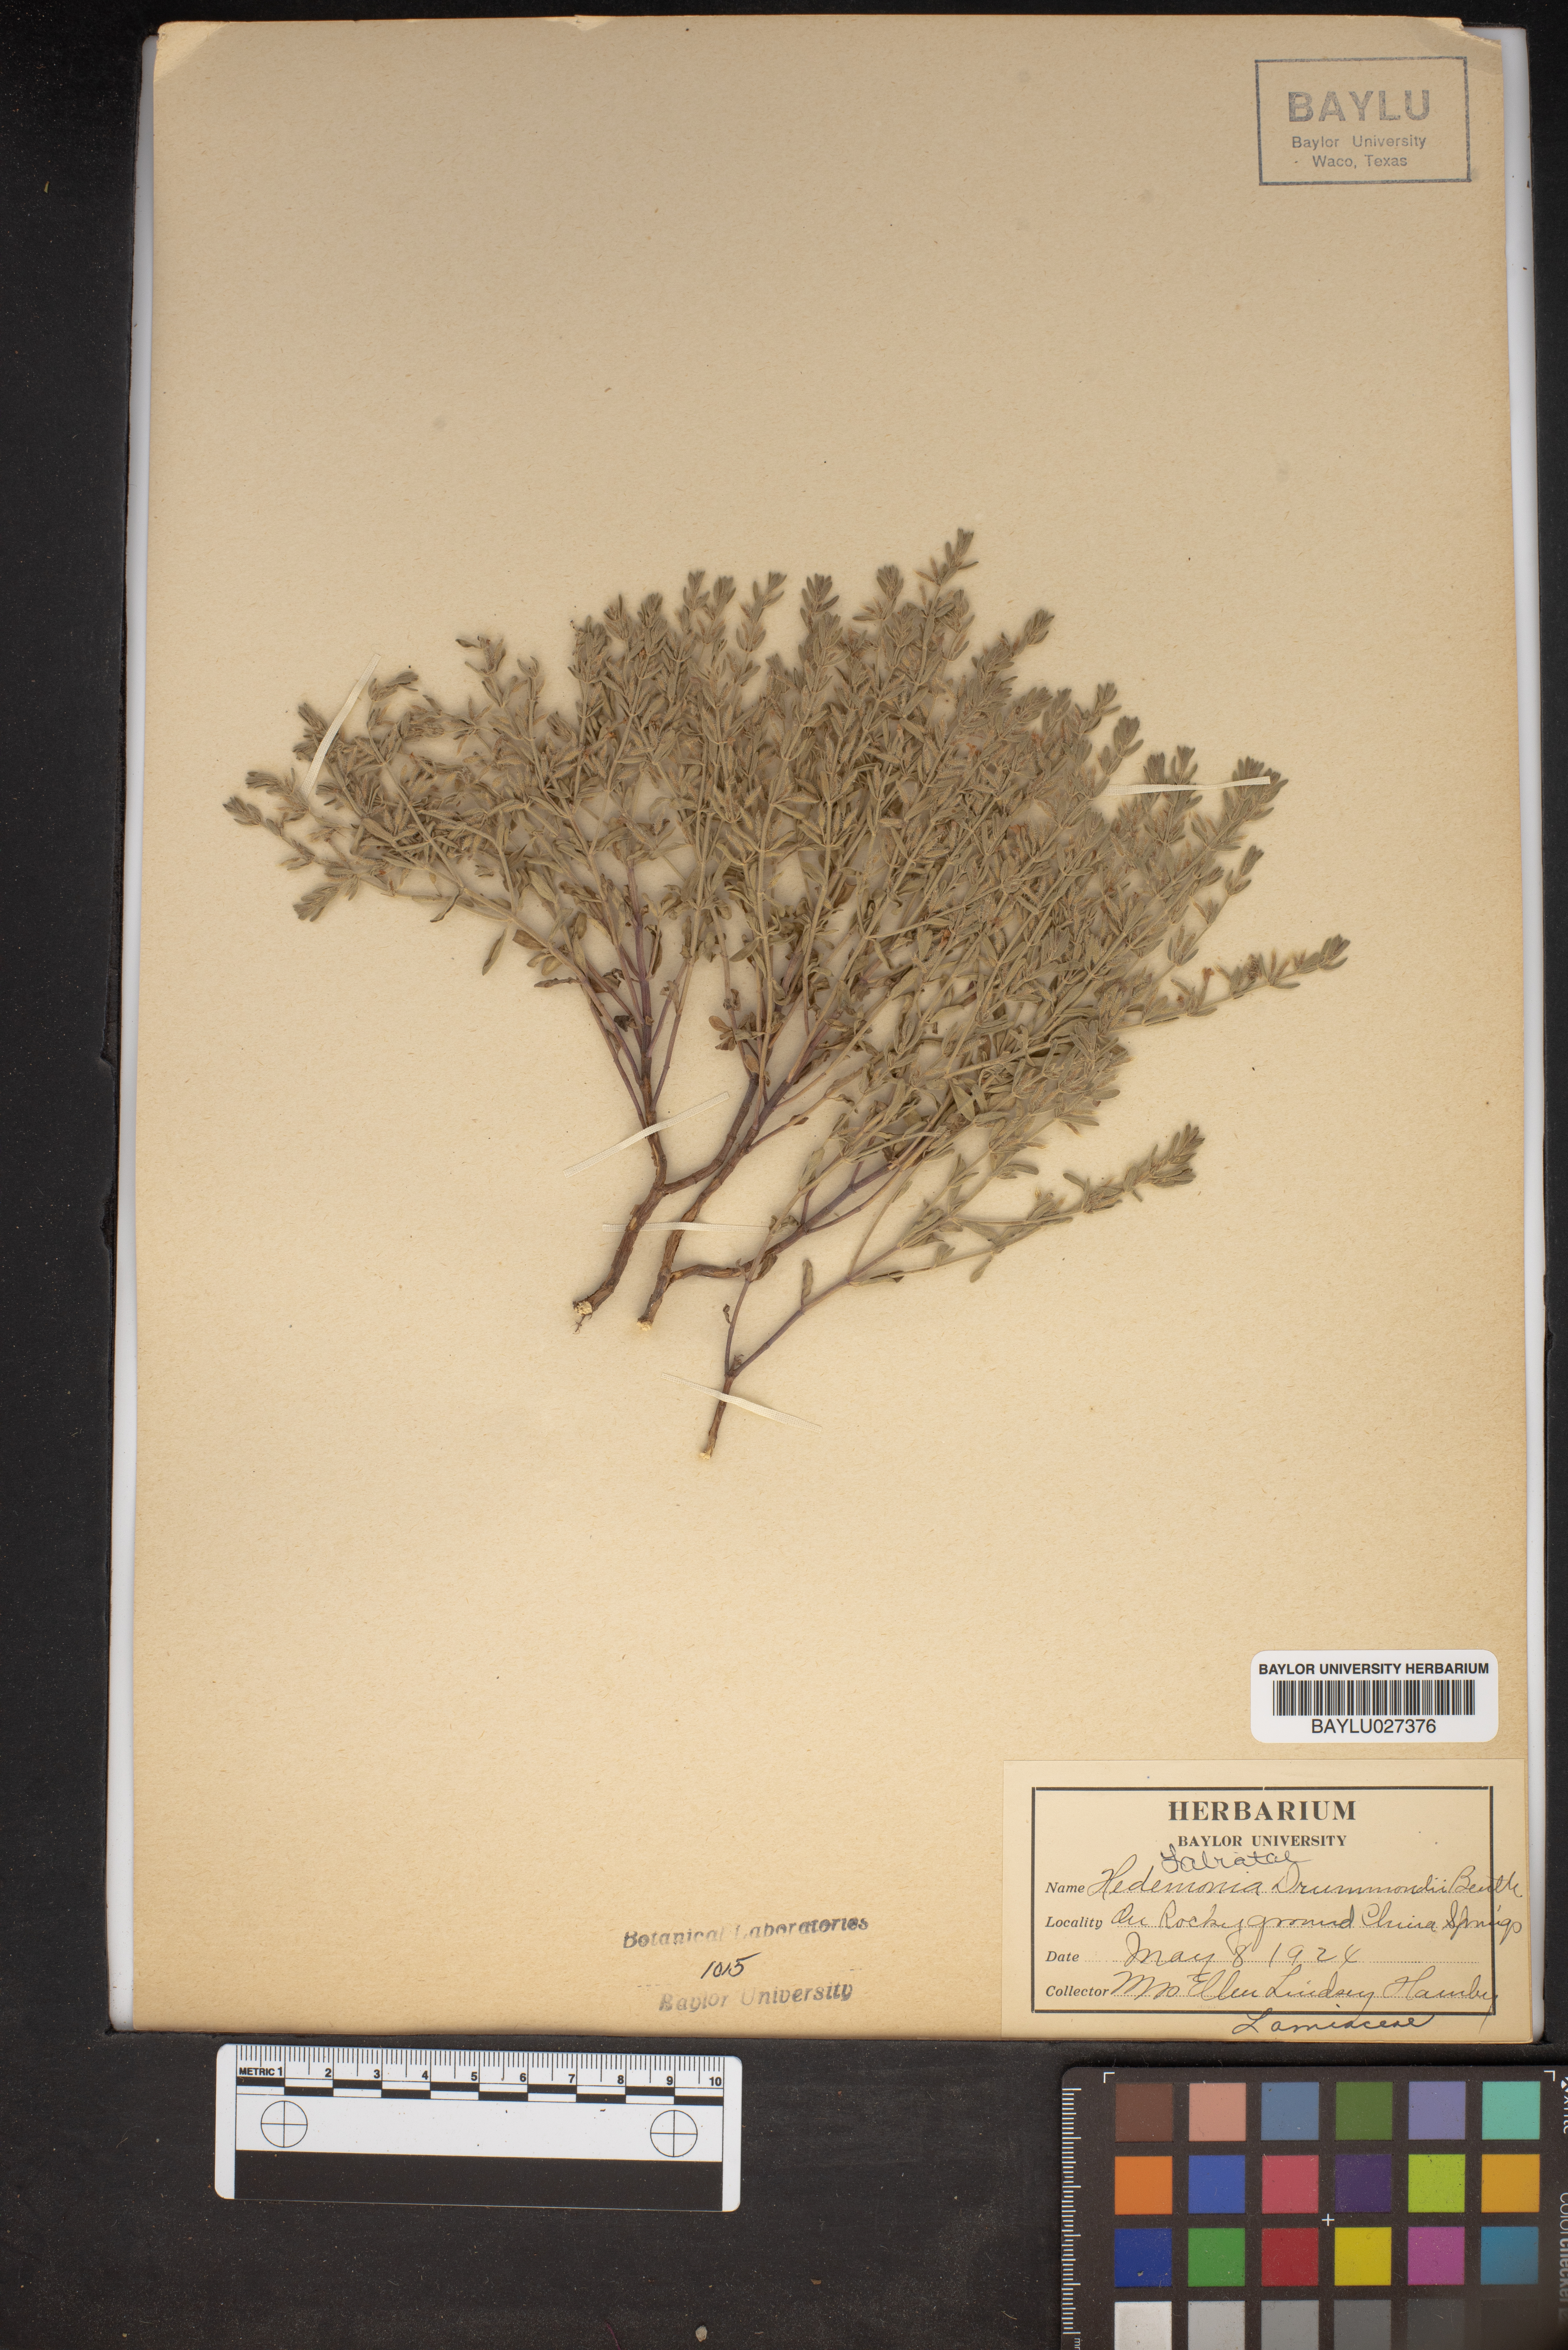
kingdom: Plantae
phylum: Tracheophyta
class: Magnoliopsida
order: Lamiales
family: Lamiaceae
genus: Hedeoma
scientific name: Hedeoma drummondii
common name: New mexico pennyroyal
